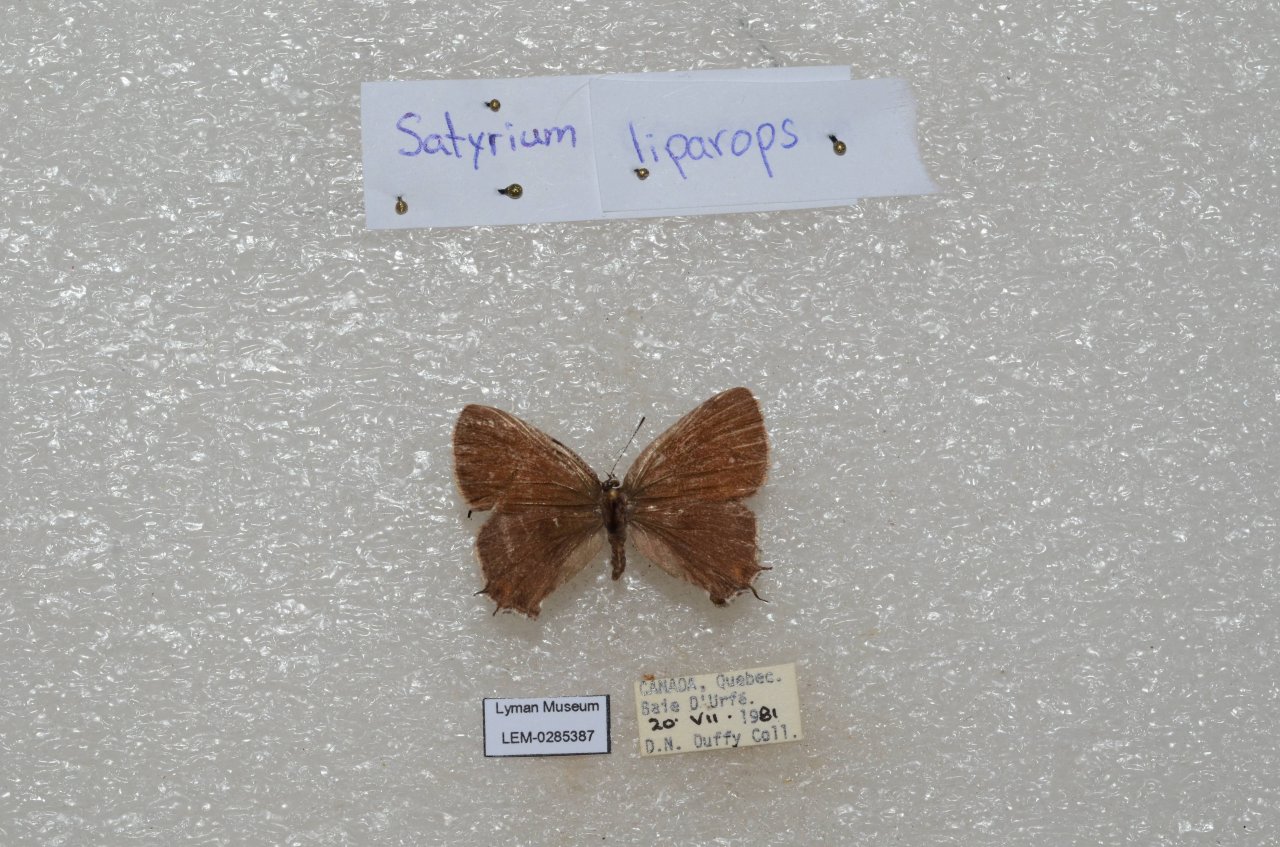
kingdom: Animalia
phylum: Arthropoda
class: Insecta
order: Lepidoptera
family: Lycaenidae
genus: Satyrium
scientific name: Satyrium liparops
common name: Striped Hairstreak
